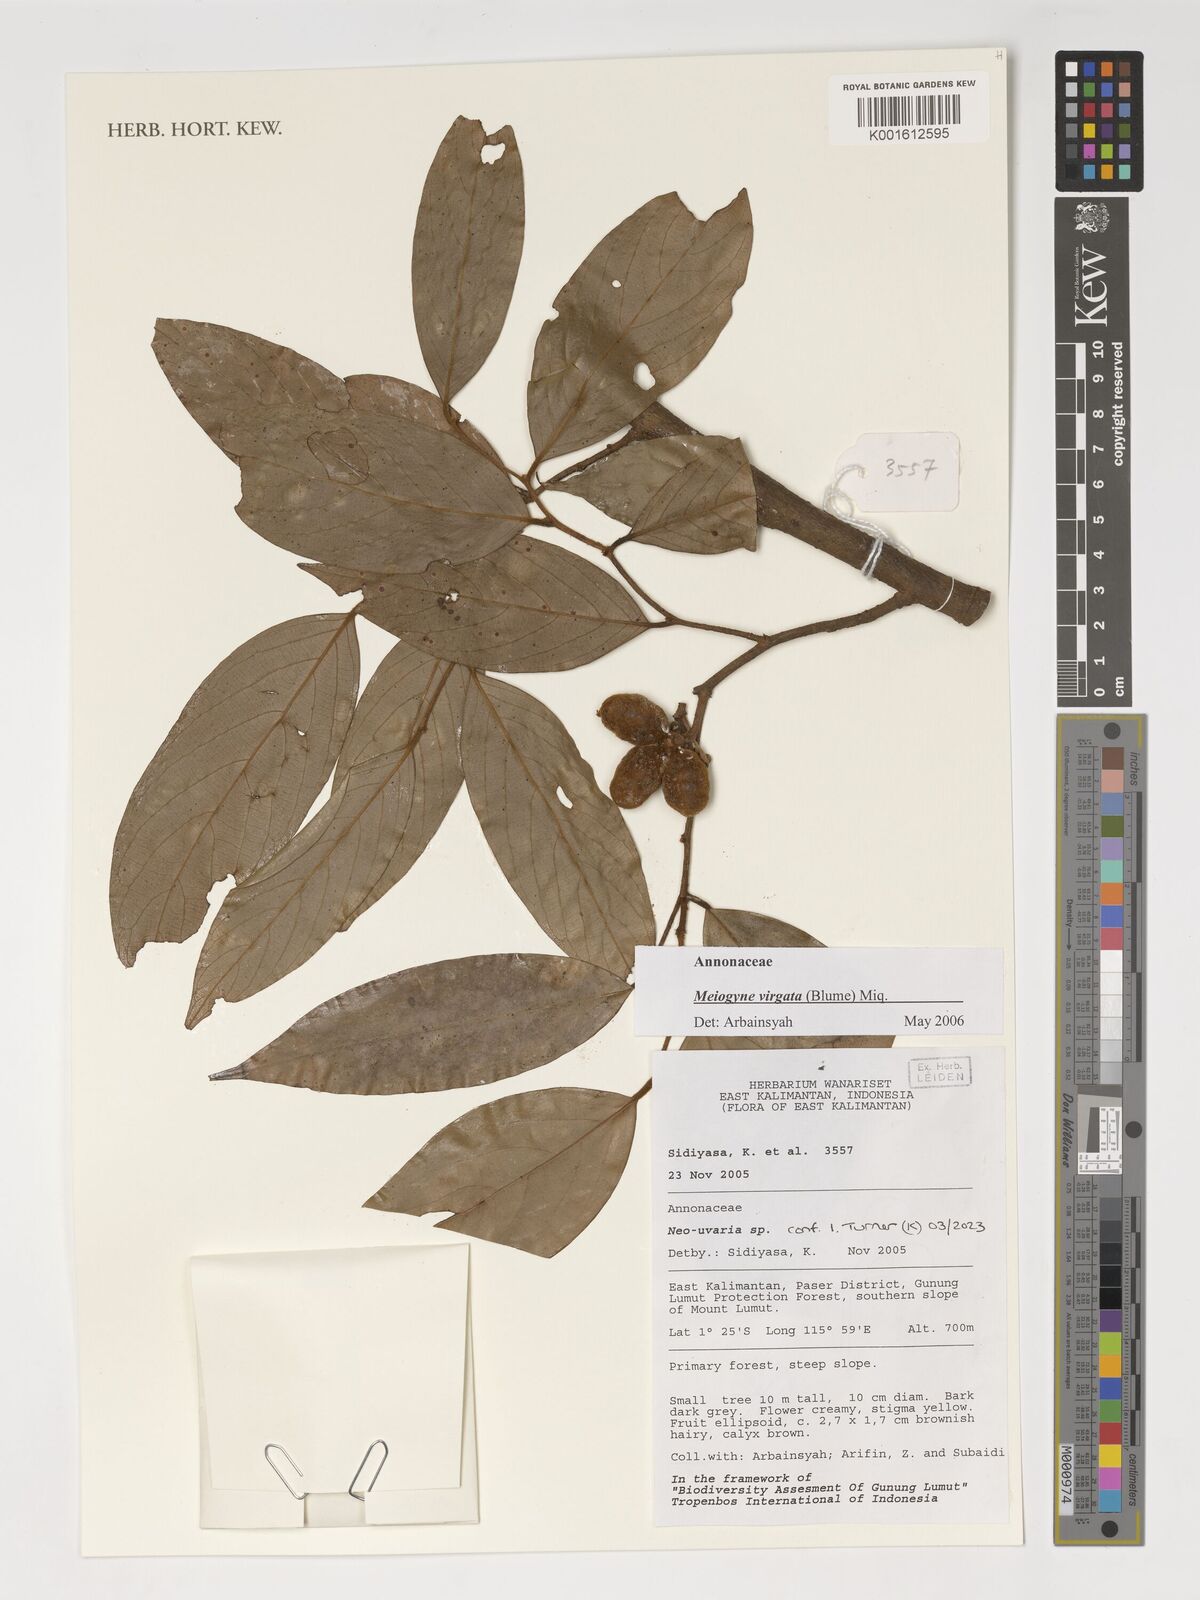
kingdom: Plantae
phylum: Tracheophyta
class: Magnoliopsida
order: Magnoliales
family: Annonaceae
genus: Neo-uvaria
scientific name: Neo-uvaria
